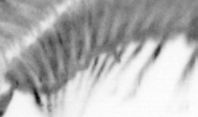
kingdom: Animalia
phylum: Annelida
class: Polychaeta
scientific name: Polychaeta
